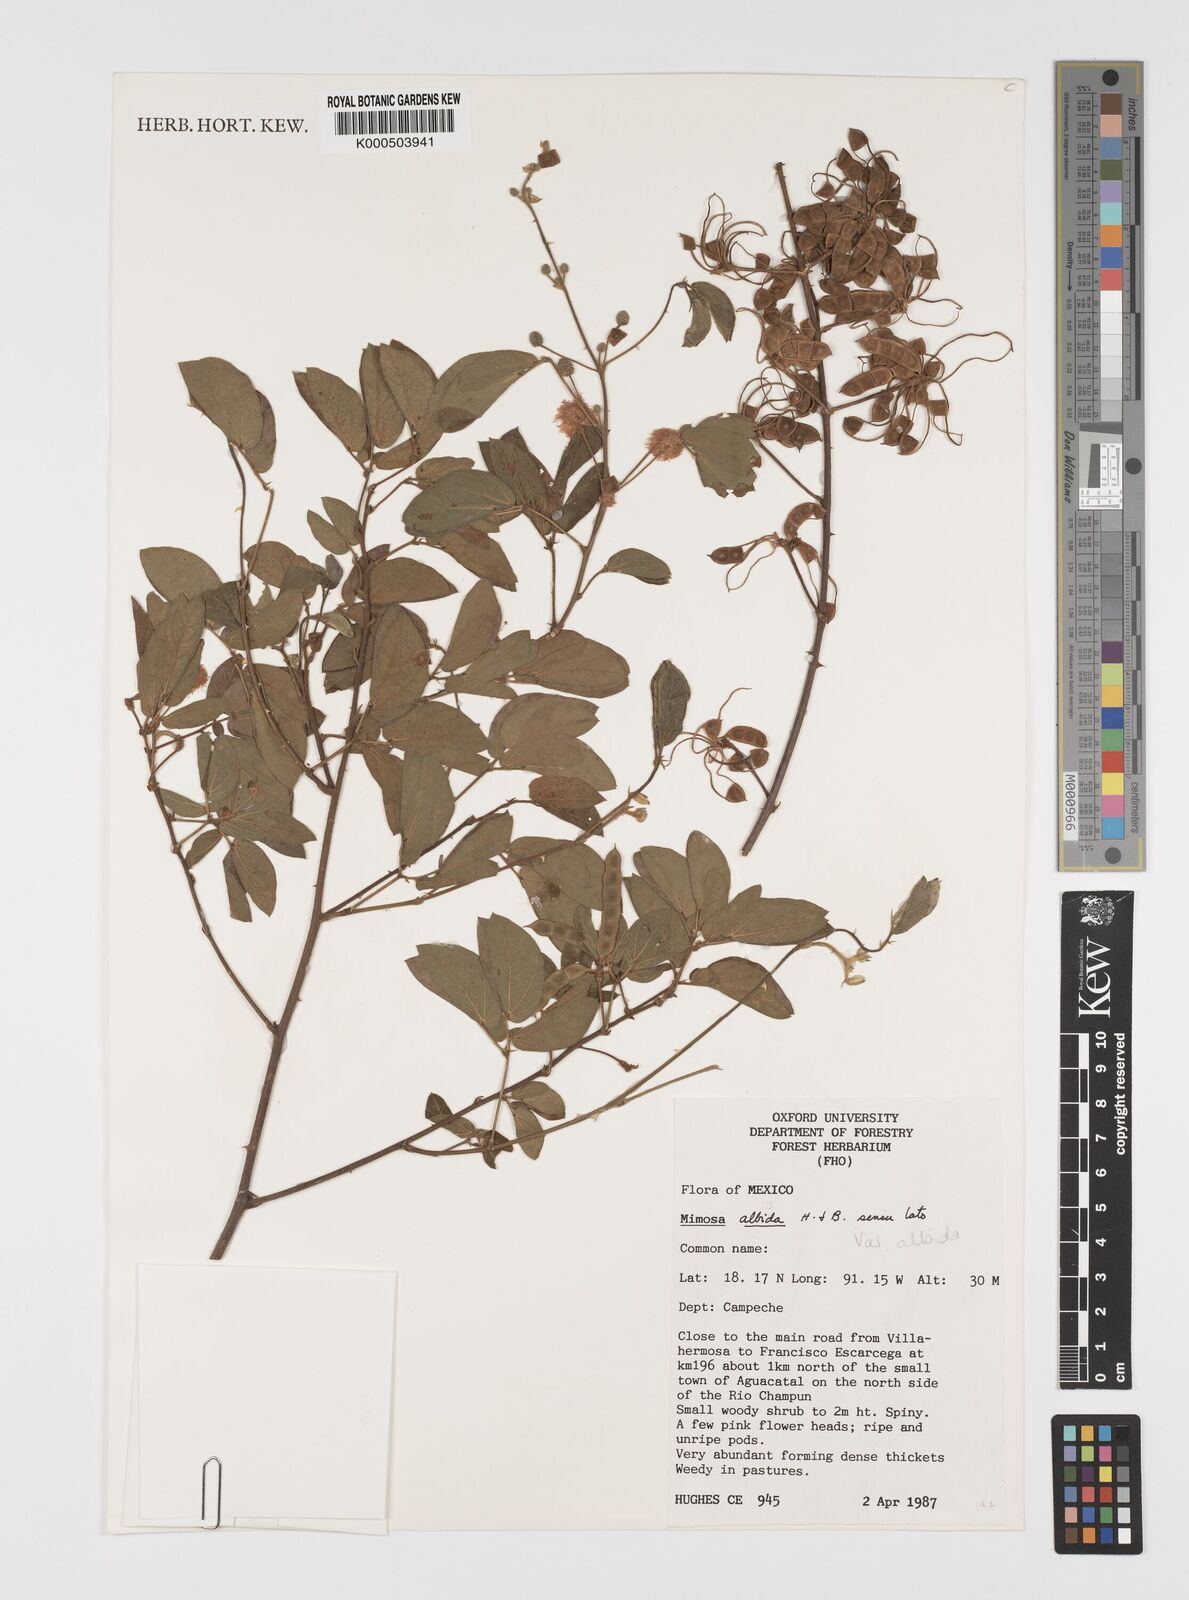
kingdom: Plantae
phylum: Tracheophyta
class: Magnoliopsida
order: Fabales
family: Fabaceae
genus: Mimosa
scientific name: Mimosa albida
